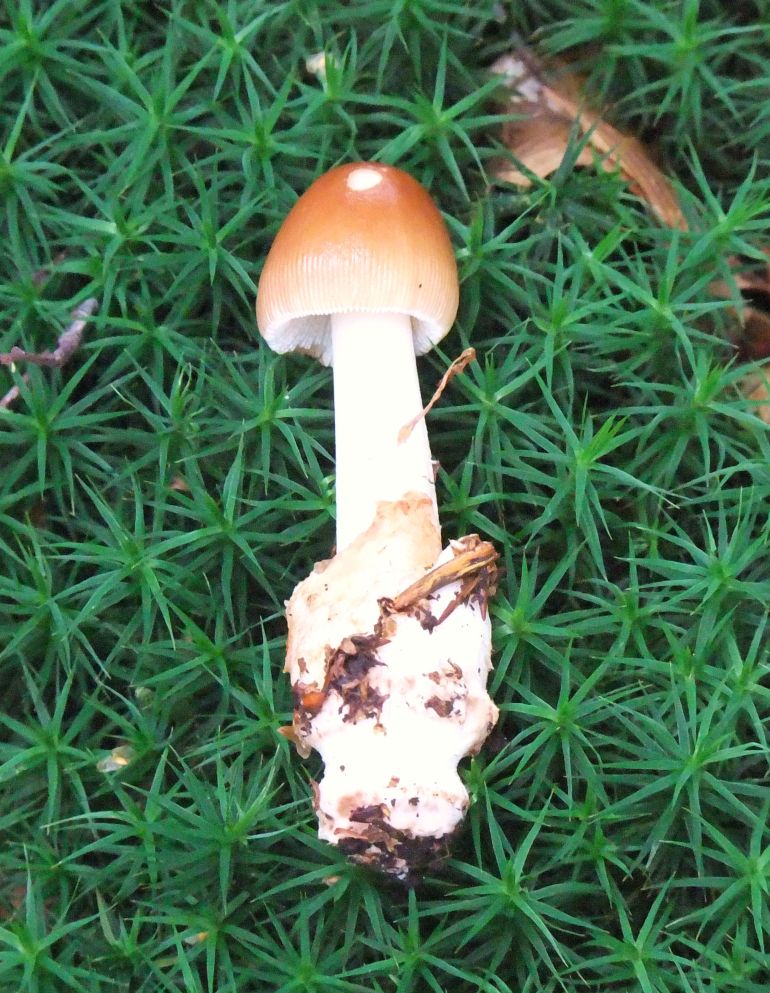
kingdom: Fungi
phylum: Basidiomycota
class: Agaricomycetes
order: Agaricales
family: Amanitaceae
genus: Amanita
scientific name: Amanita fulva
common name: brun kam-fluesvamp
